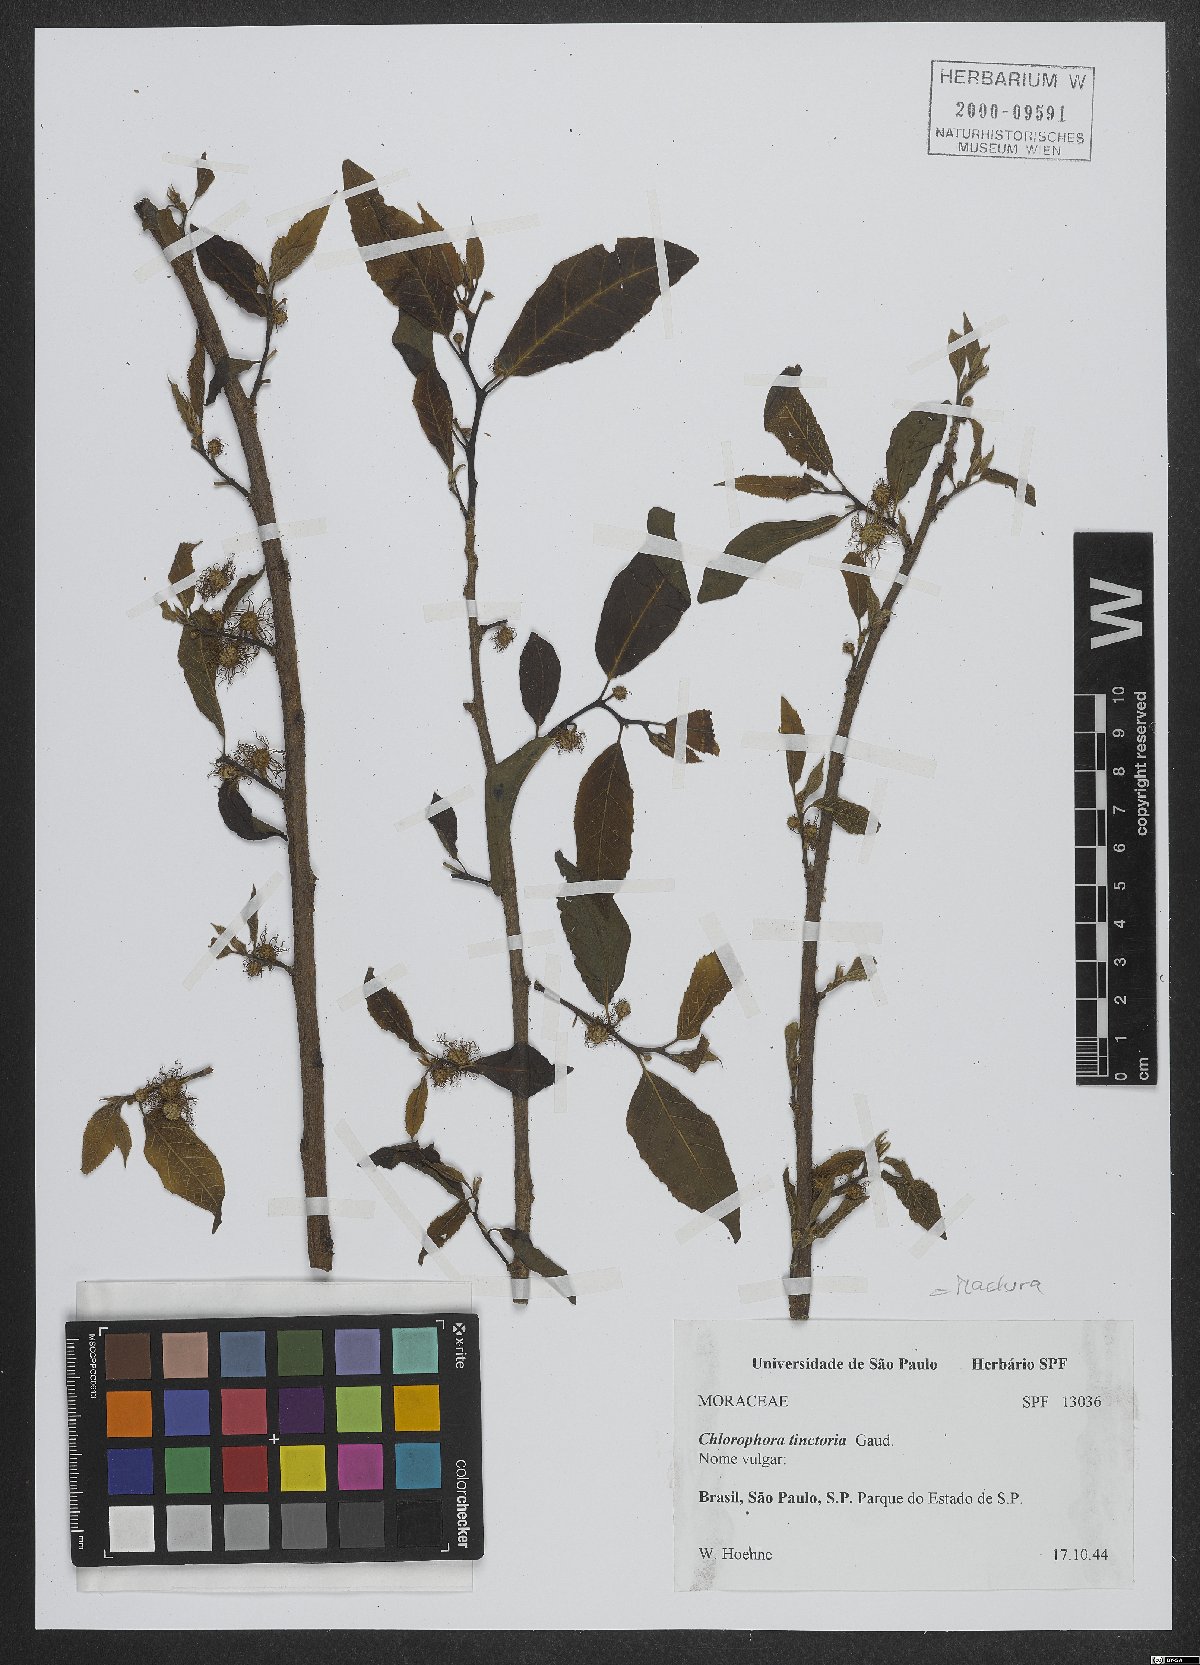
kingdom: Plantae
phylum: Tracheophyta
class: Magnoliopsida
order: Rosales
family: Moraceae
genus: Maclura
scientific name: Maclura tinctoria
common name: Old fustic
